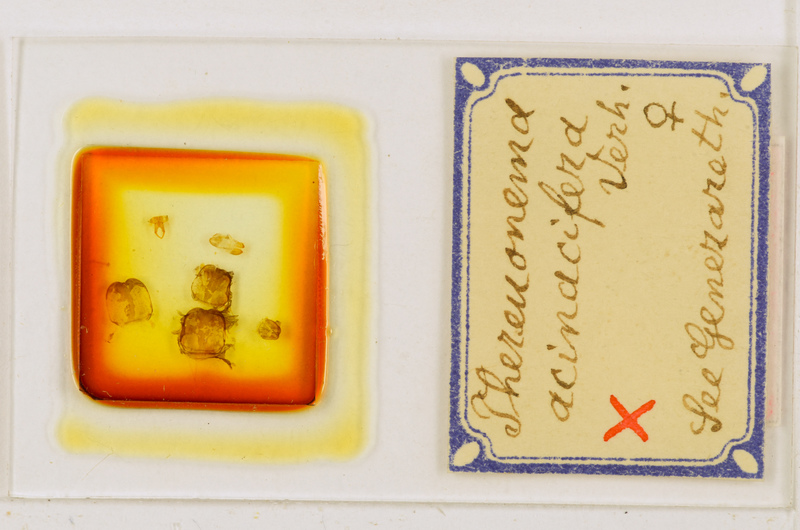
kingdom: Animalia
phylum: Arthropoda
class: Chilopoda
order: Scutigeromorpha
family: Scutigeridae
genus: Thereuonema
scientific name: Thereuonema microstoma
